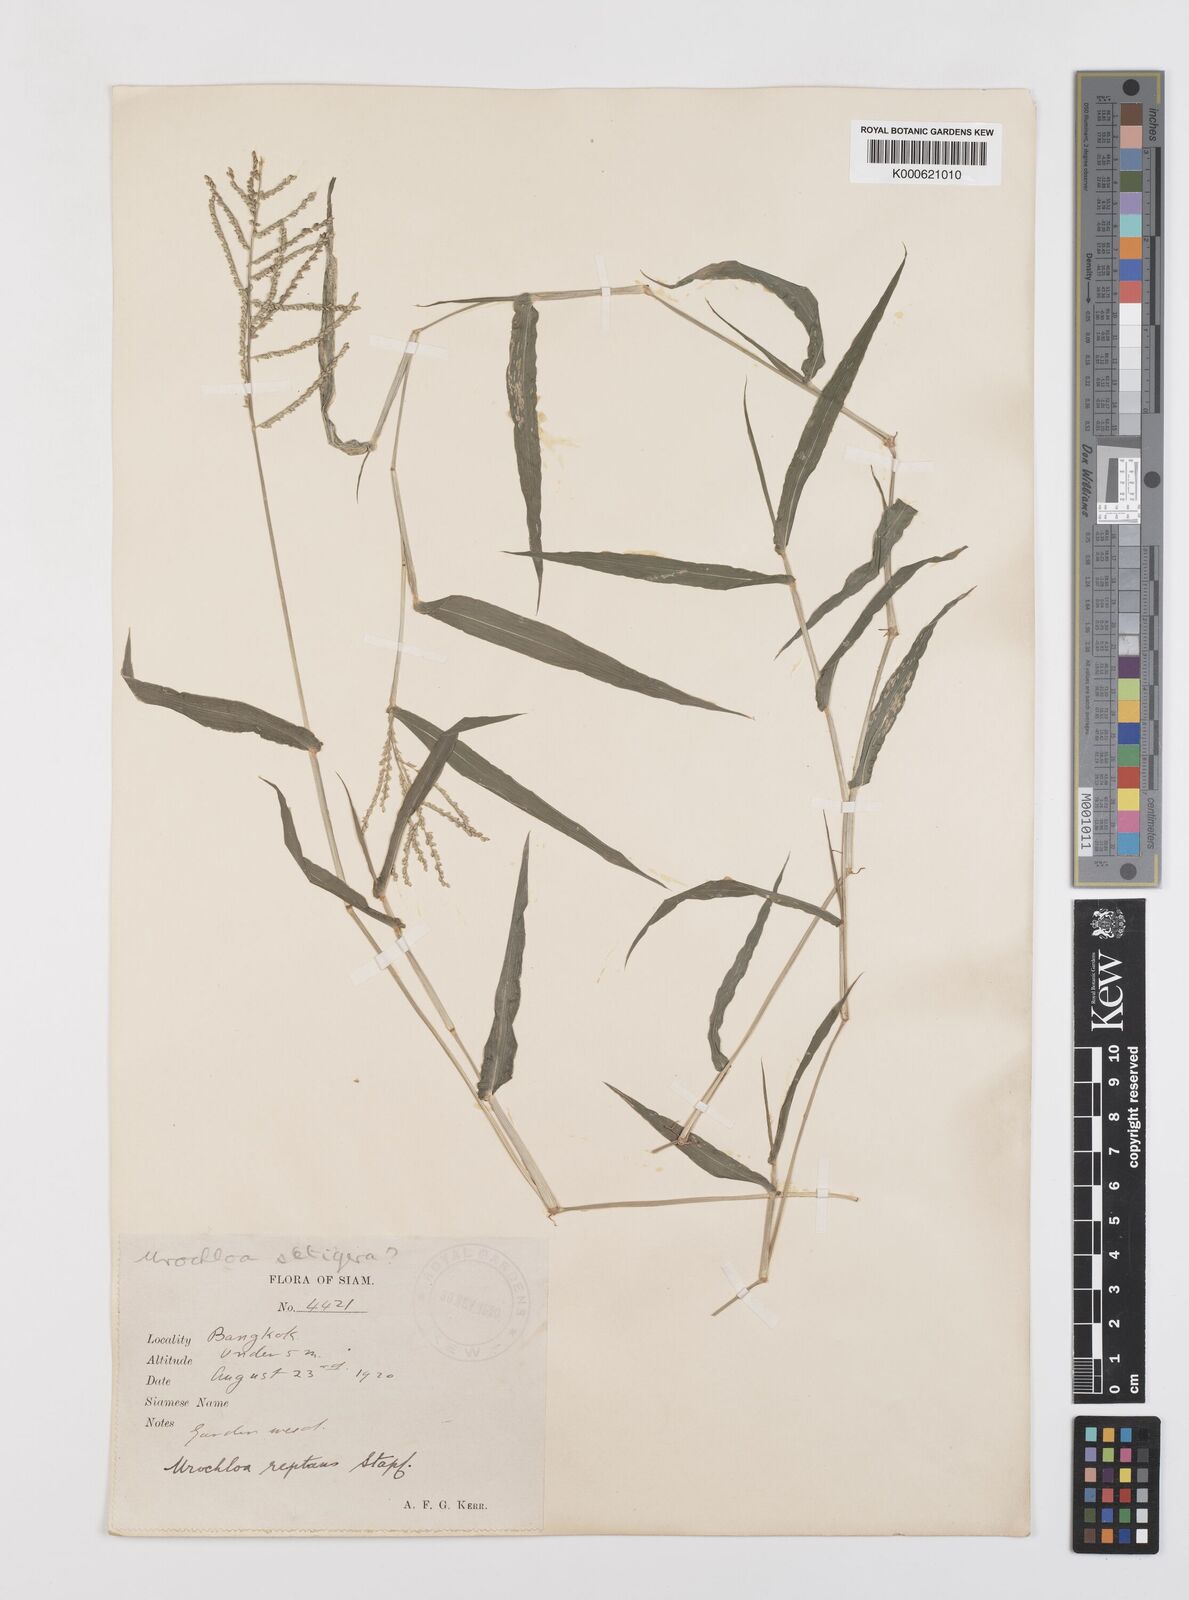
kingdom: Plantae
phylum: Tracheophyta
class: Liliopsida
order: Poales
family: Poaceae
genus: Urochloa
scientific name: Urochloa reptans
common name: Sprawling signalgrass
